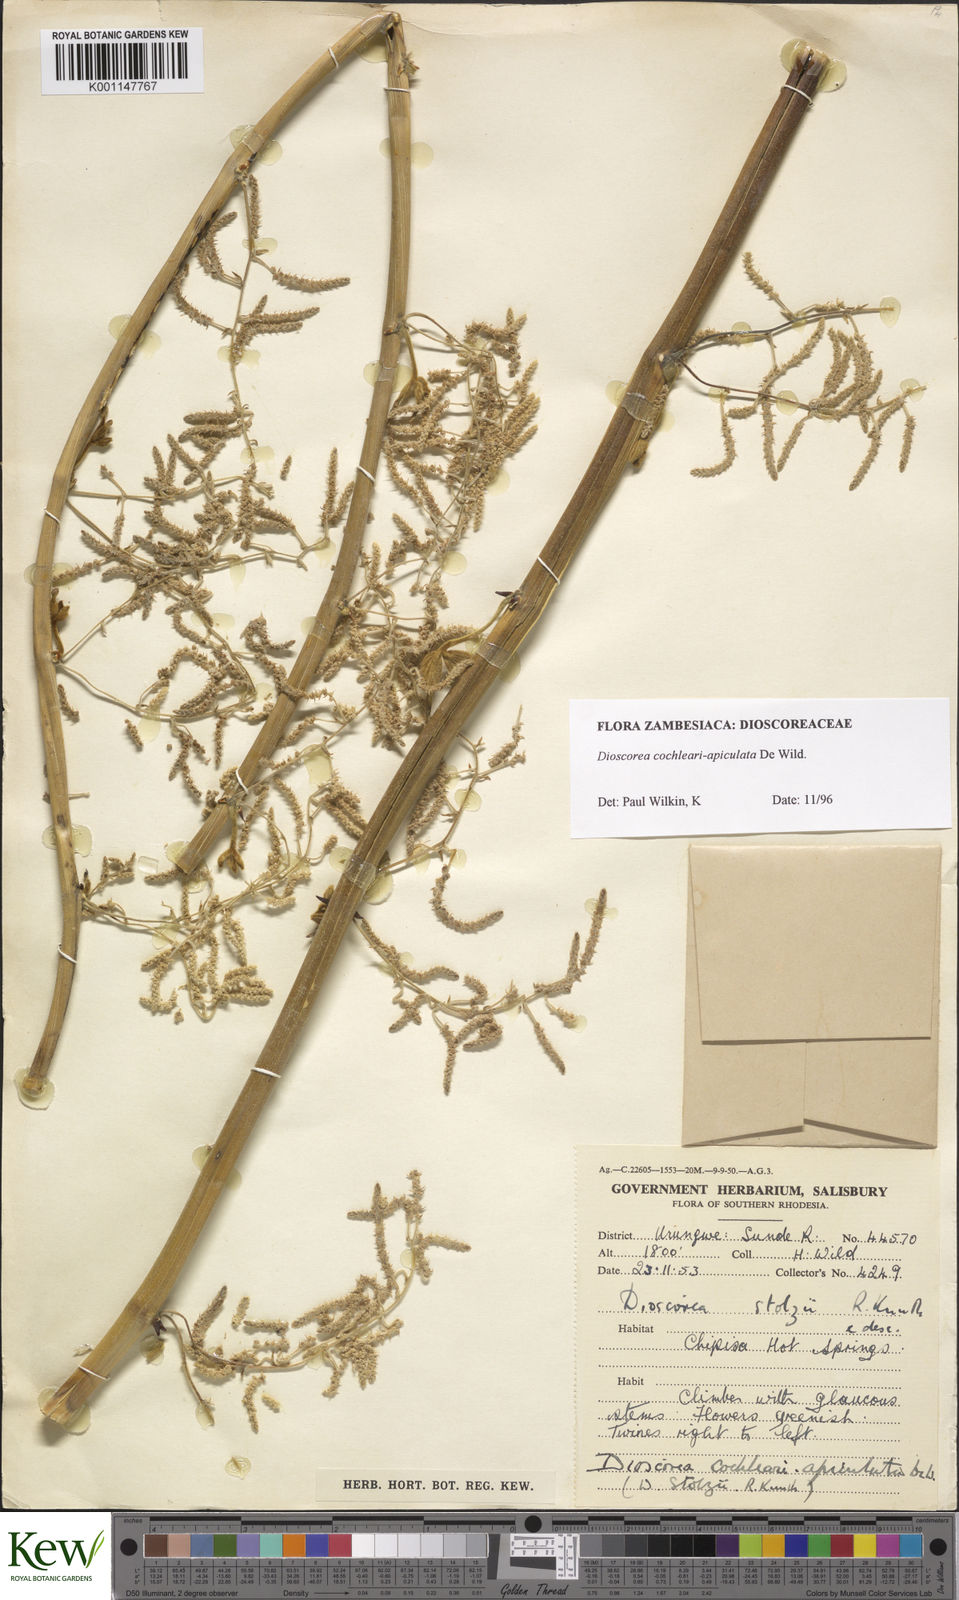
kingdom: Plantae
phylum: Tracheophyta
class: Liliopsida
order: Dioscoreales
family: Dioscoreaceae
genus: Dioscorea
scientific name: Dioscorea cochleariapiculata
